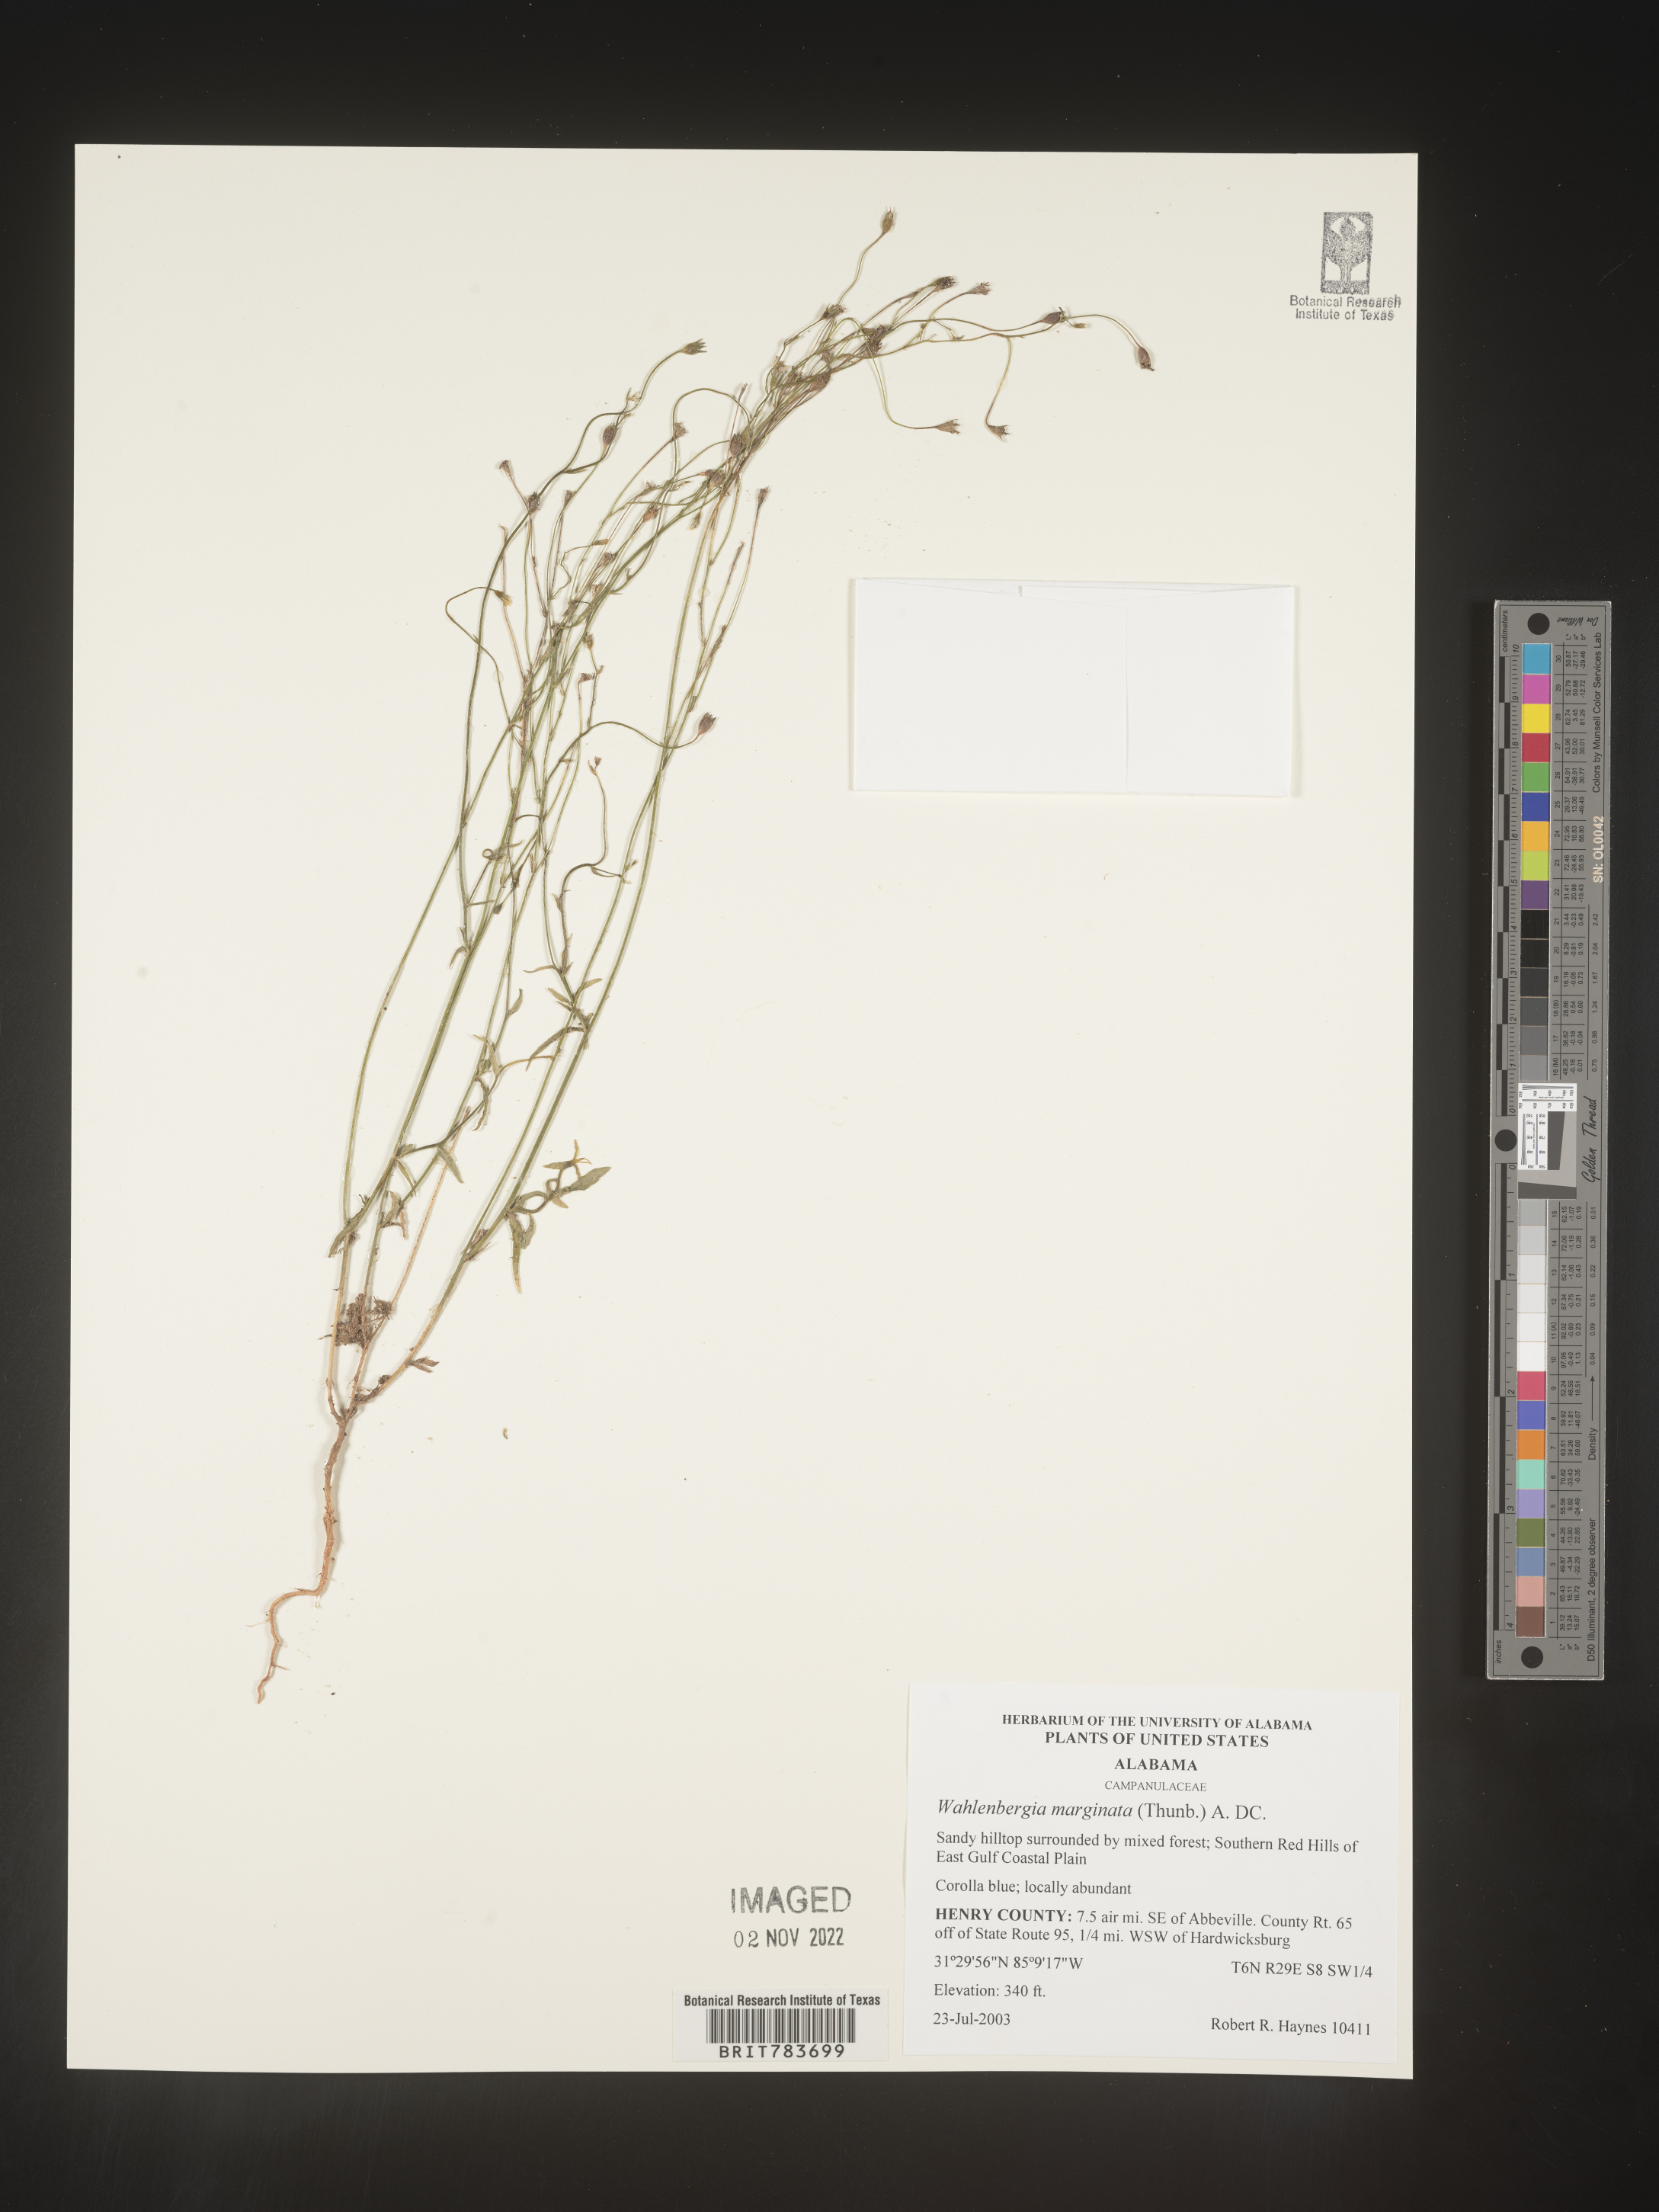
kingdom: Plantae
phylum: Tracheophyta
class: Magnoliopsida
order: Asterales
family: Campanulaceae
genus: Wahlenbergia
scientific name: Wahlenbergia marginata
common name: Southern rockbell
